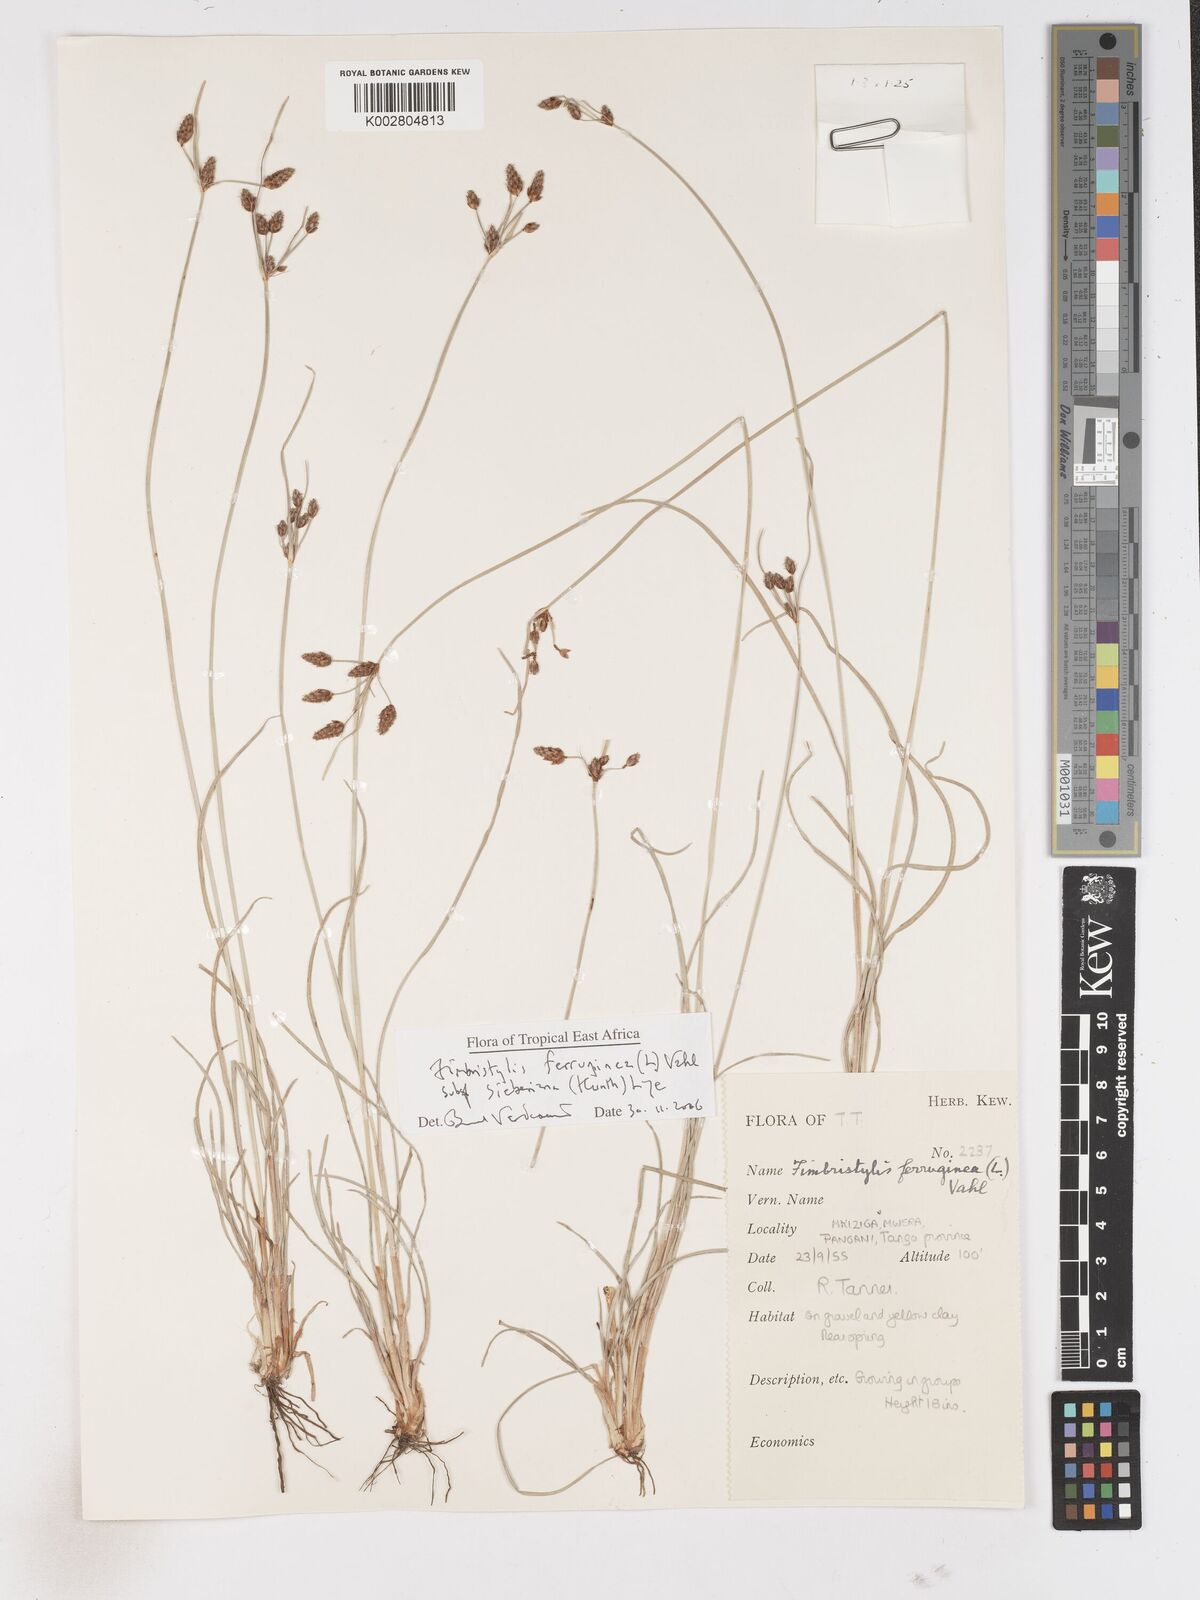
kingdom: Plantae
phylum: Tracheophyta
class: Liliopsida
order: Poales
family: Cyperaceae
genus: Fimbristylis
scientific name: Fimbristylis ferruginea
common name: West indian fimbry
